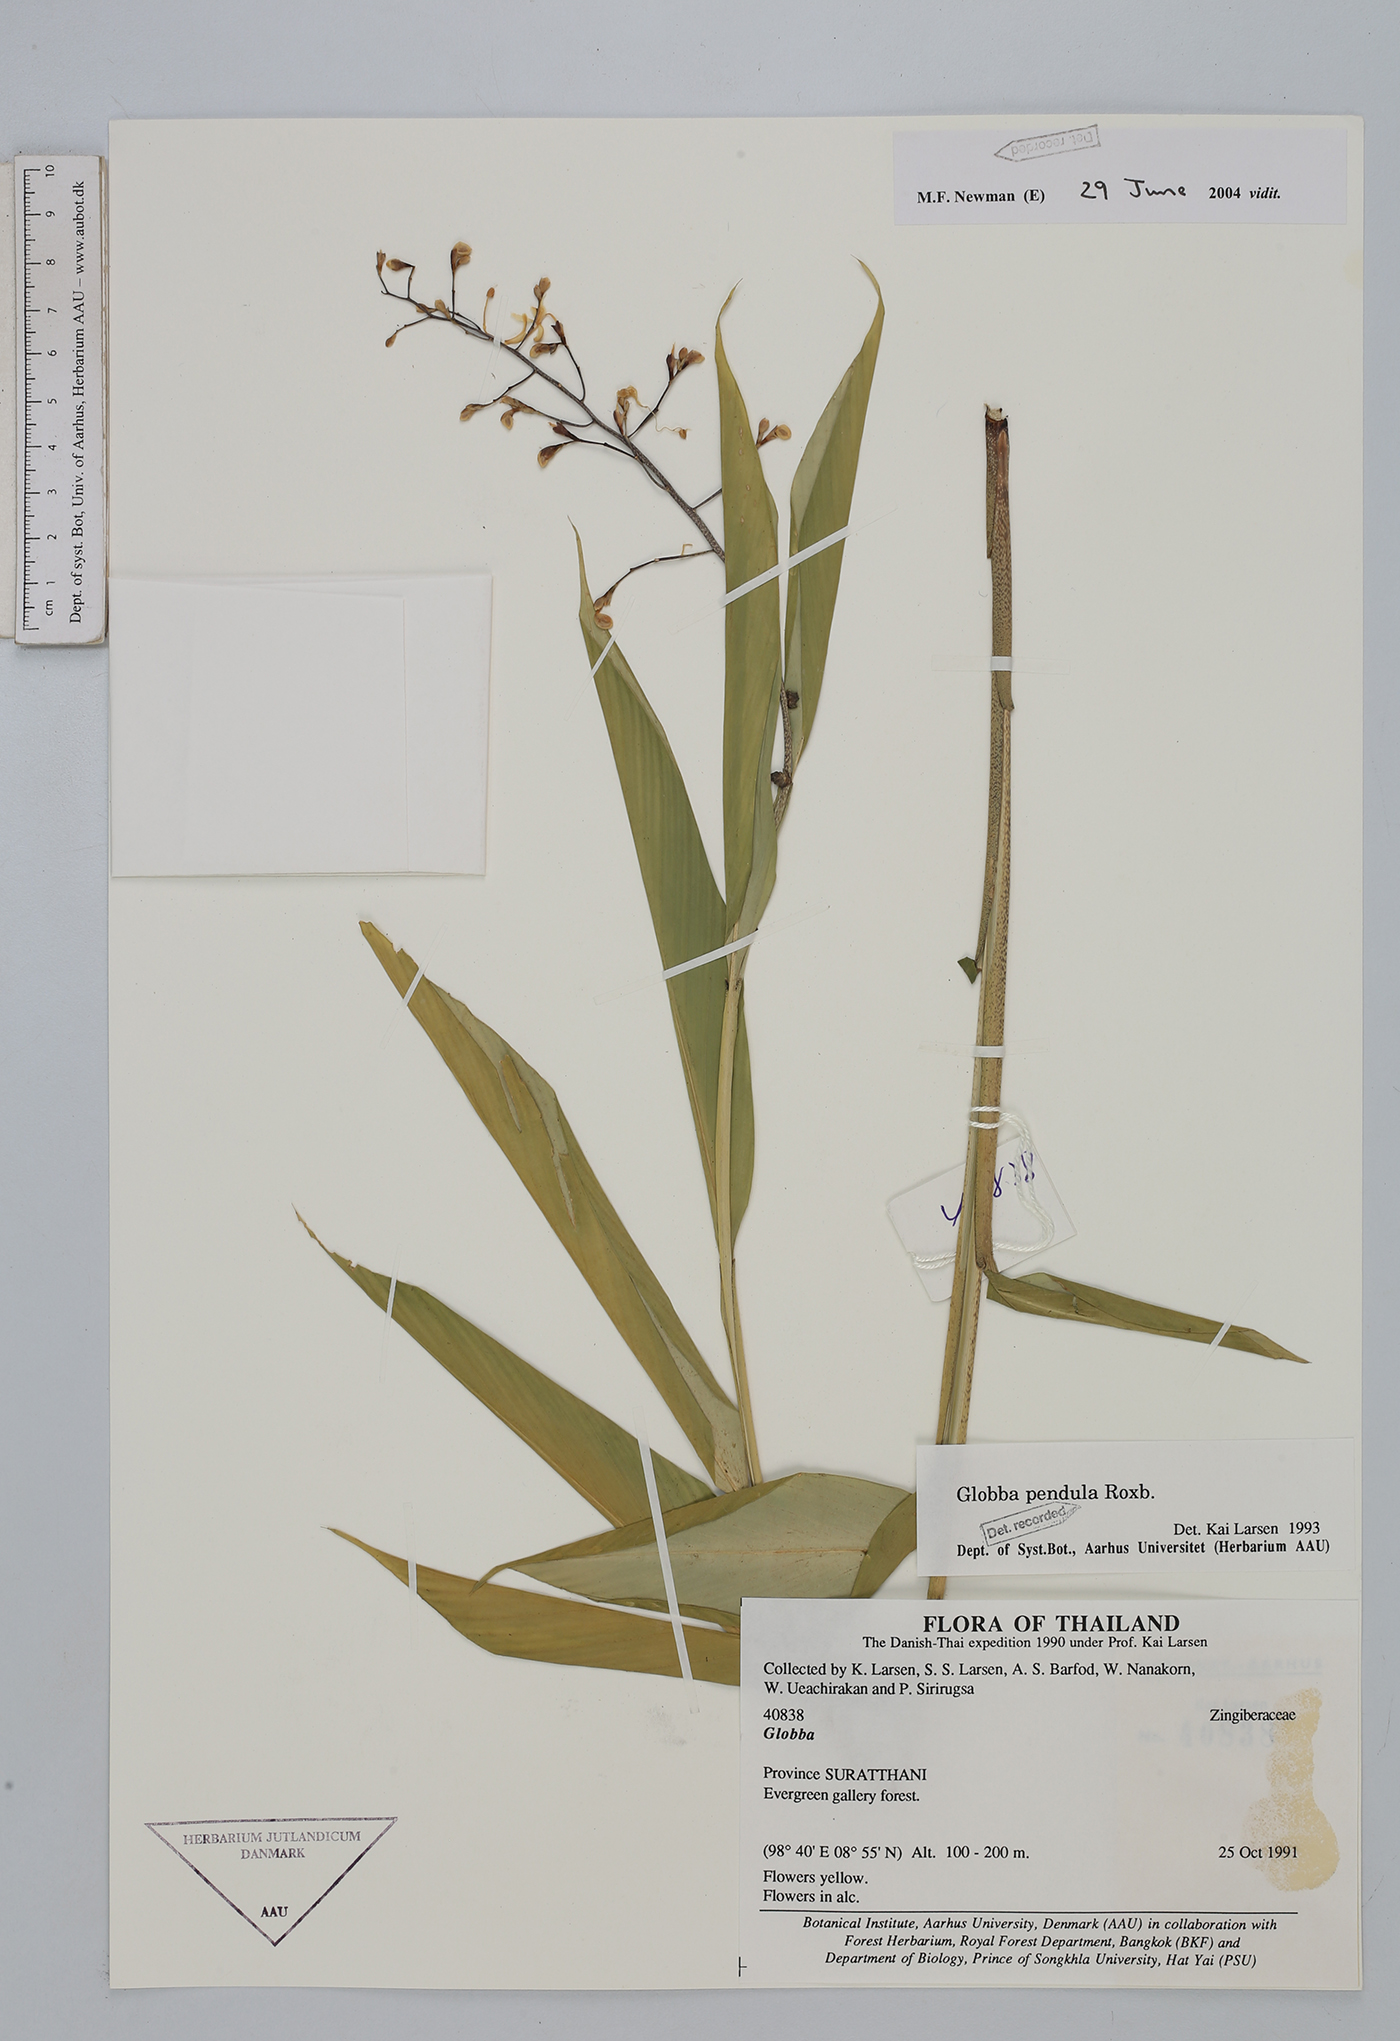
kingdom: Plantae
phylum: Tracheophyta
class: Liliopsida
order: Zingiberales
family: Zingiberaceae
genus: Globba
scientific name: Globba pendula
